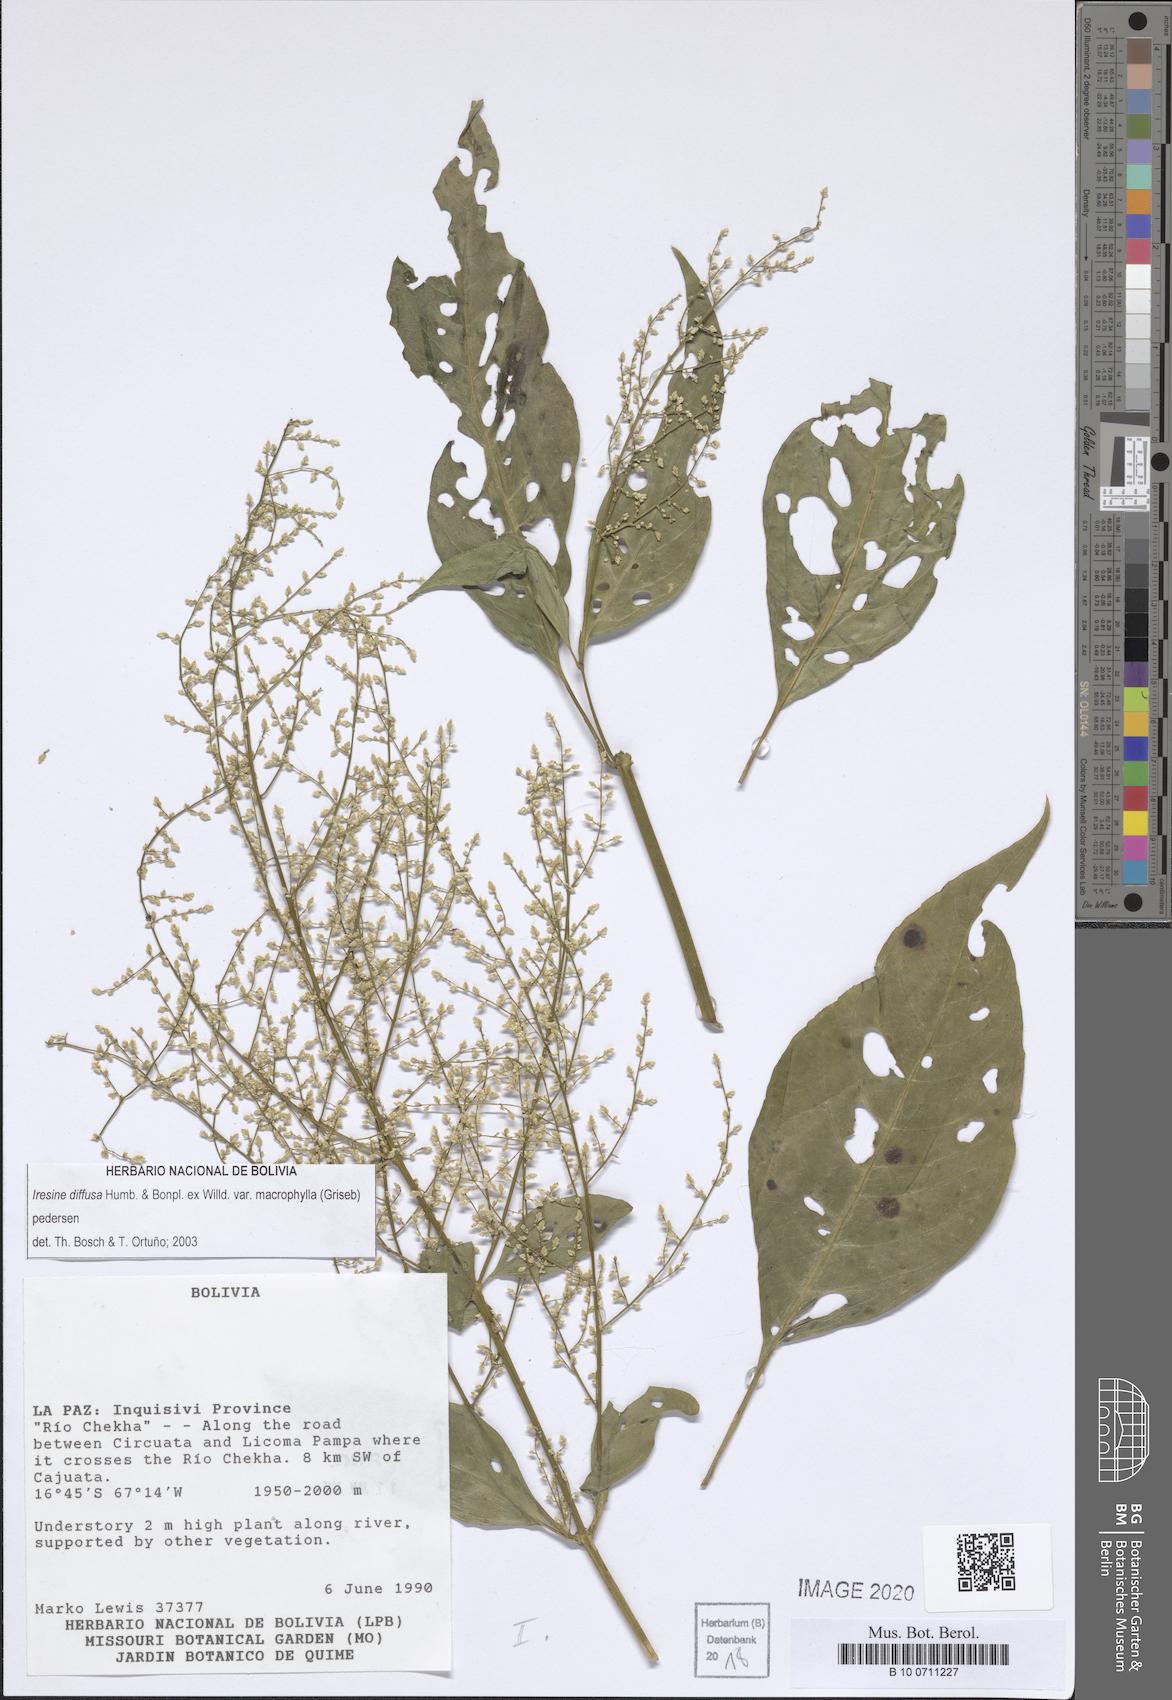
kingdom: Plantae
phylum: Tracheophyta
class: Magnoliopsida
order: Caryophyllales
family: Amaranthaceae
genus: Iresine
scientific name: Iresine diffusa
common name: Juba's-bush
